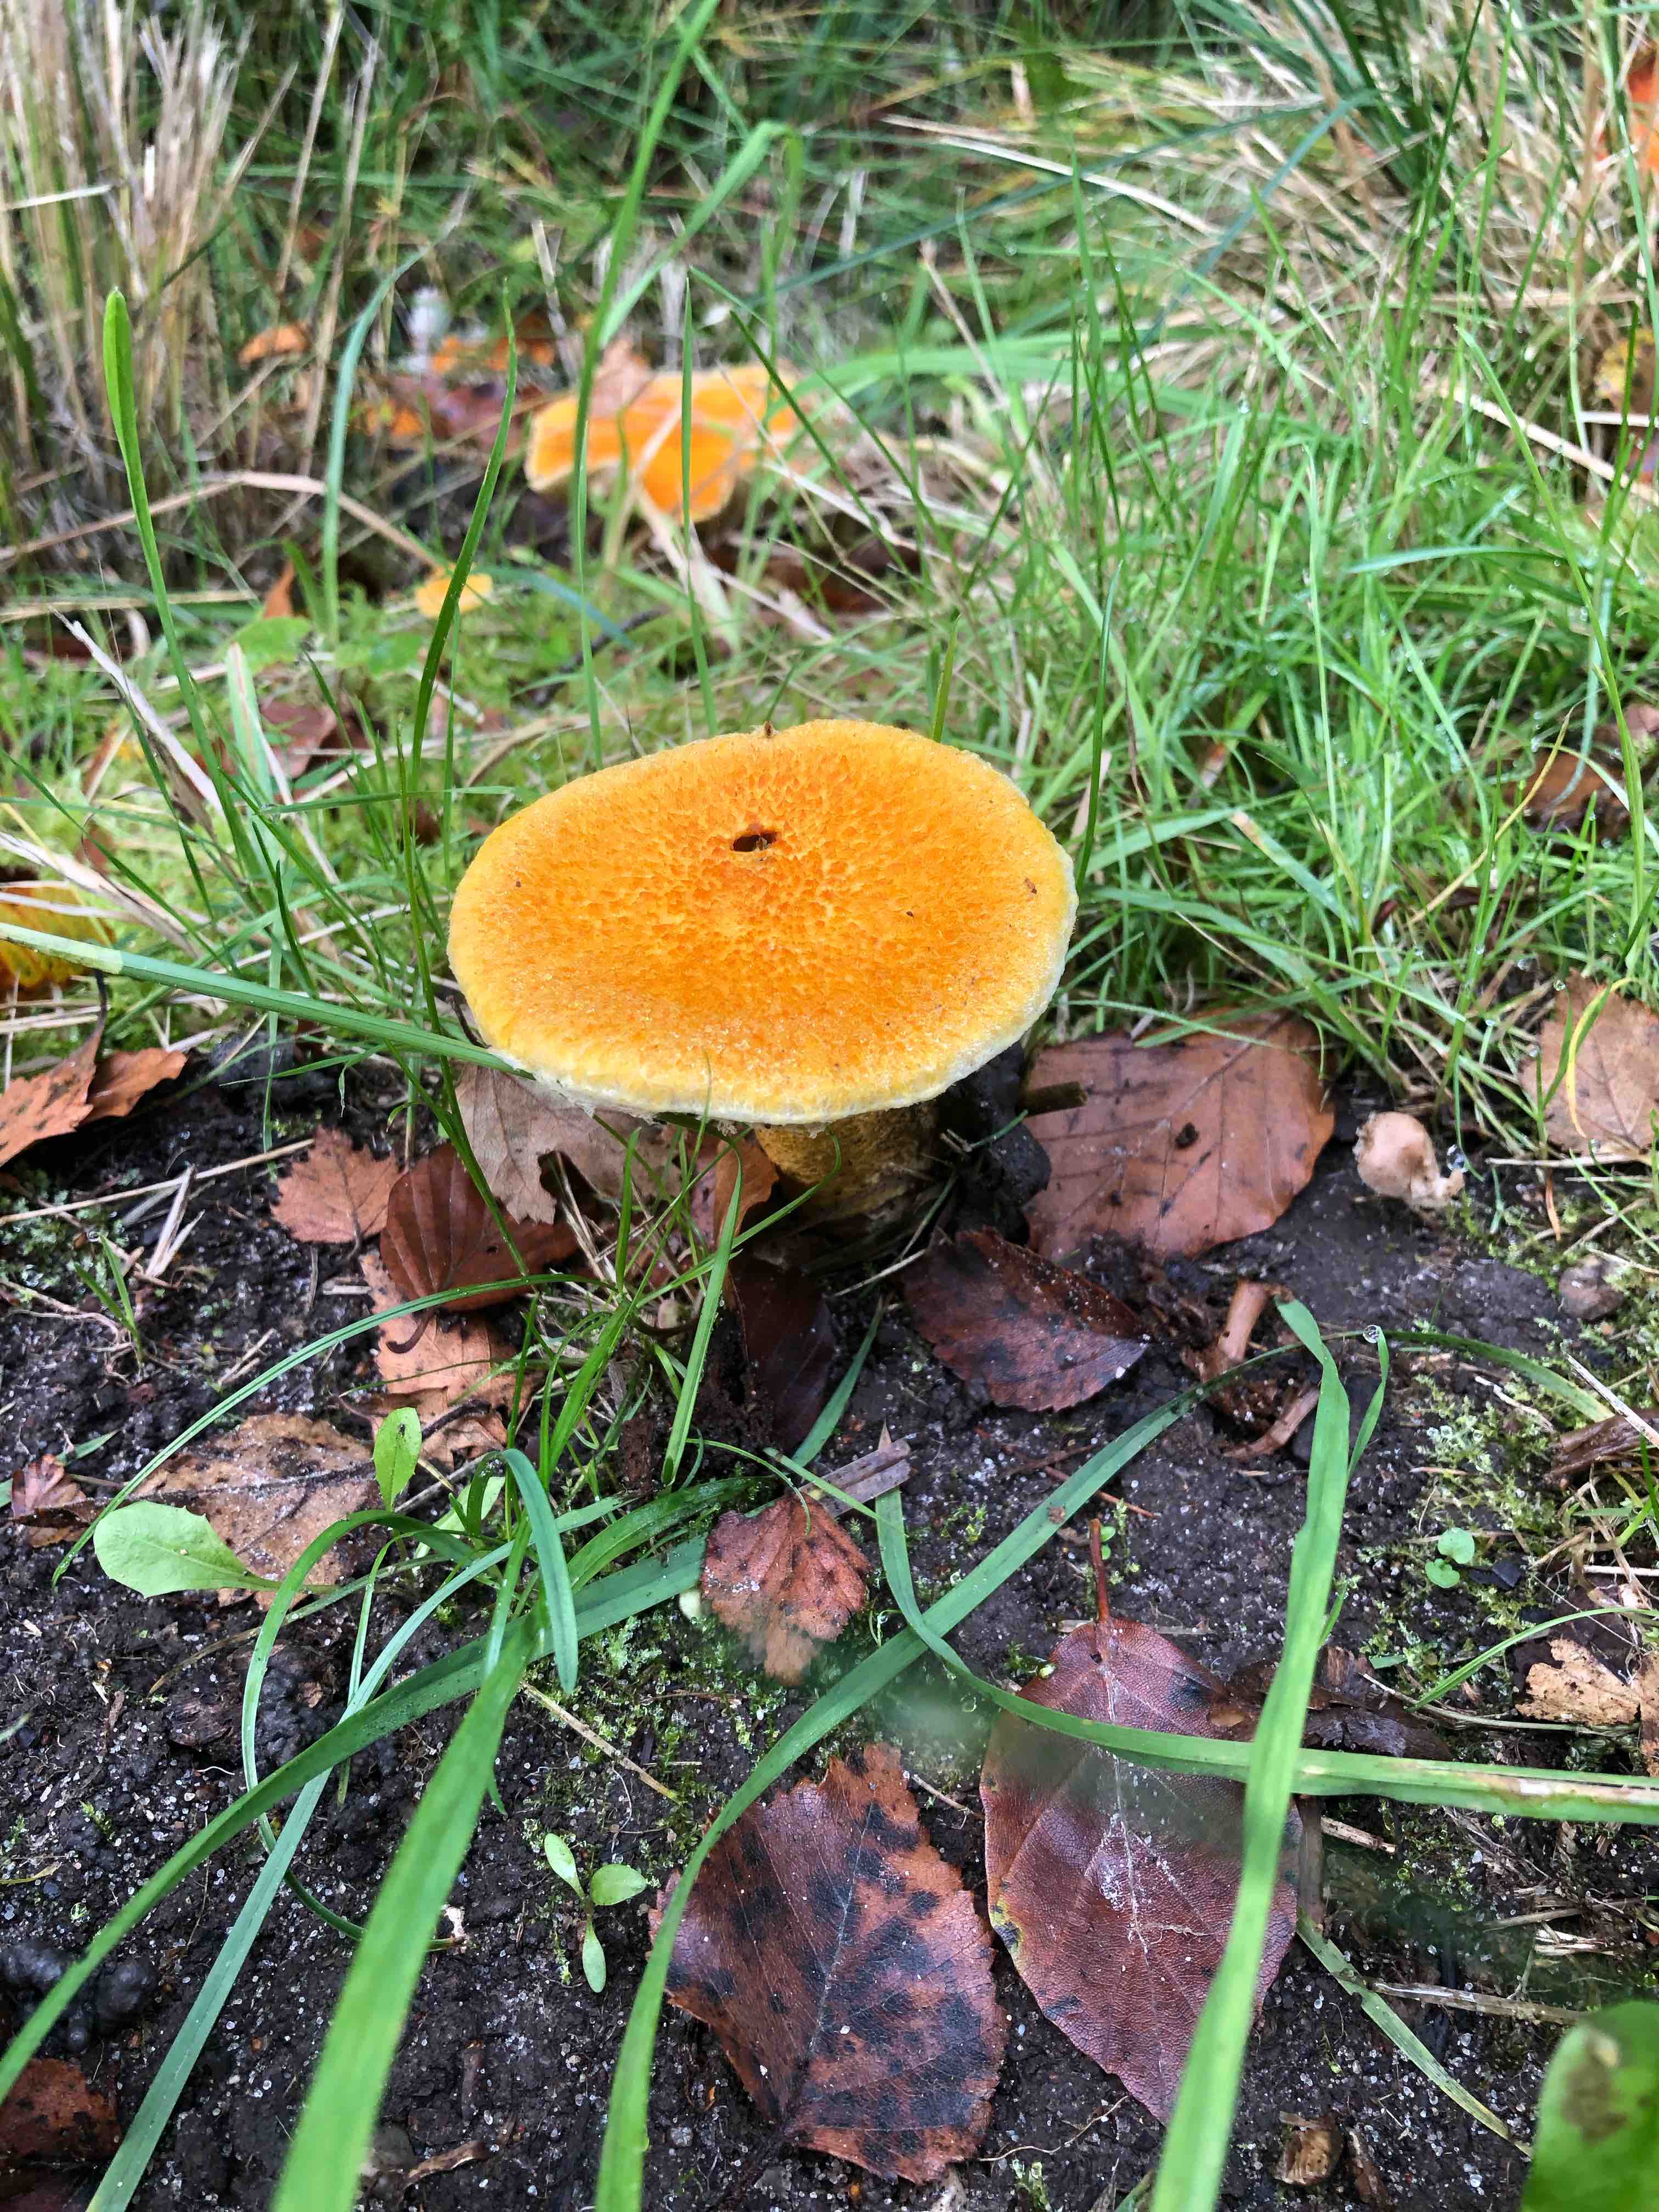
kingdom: Fungi
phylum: Basidiomycota
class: Agaricomycetes
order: Boletales
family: Suillaceae
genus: Suillus
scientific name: Suillus cavipes
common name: hulstokket slimrørhat, gul form
